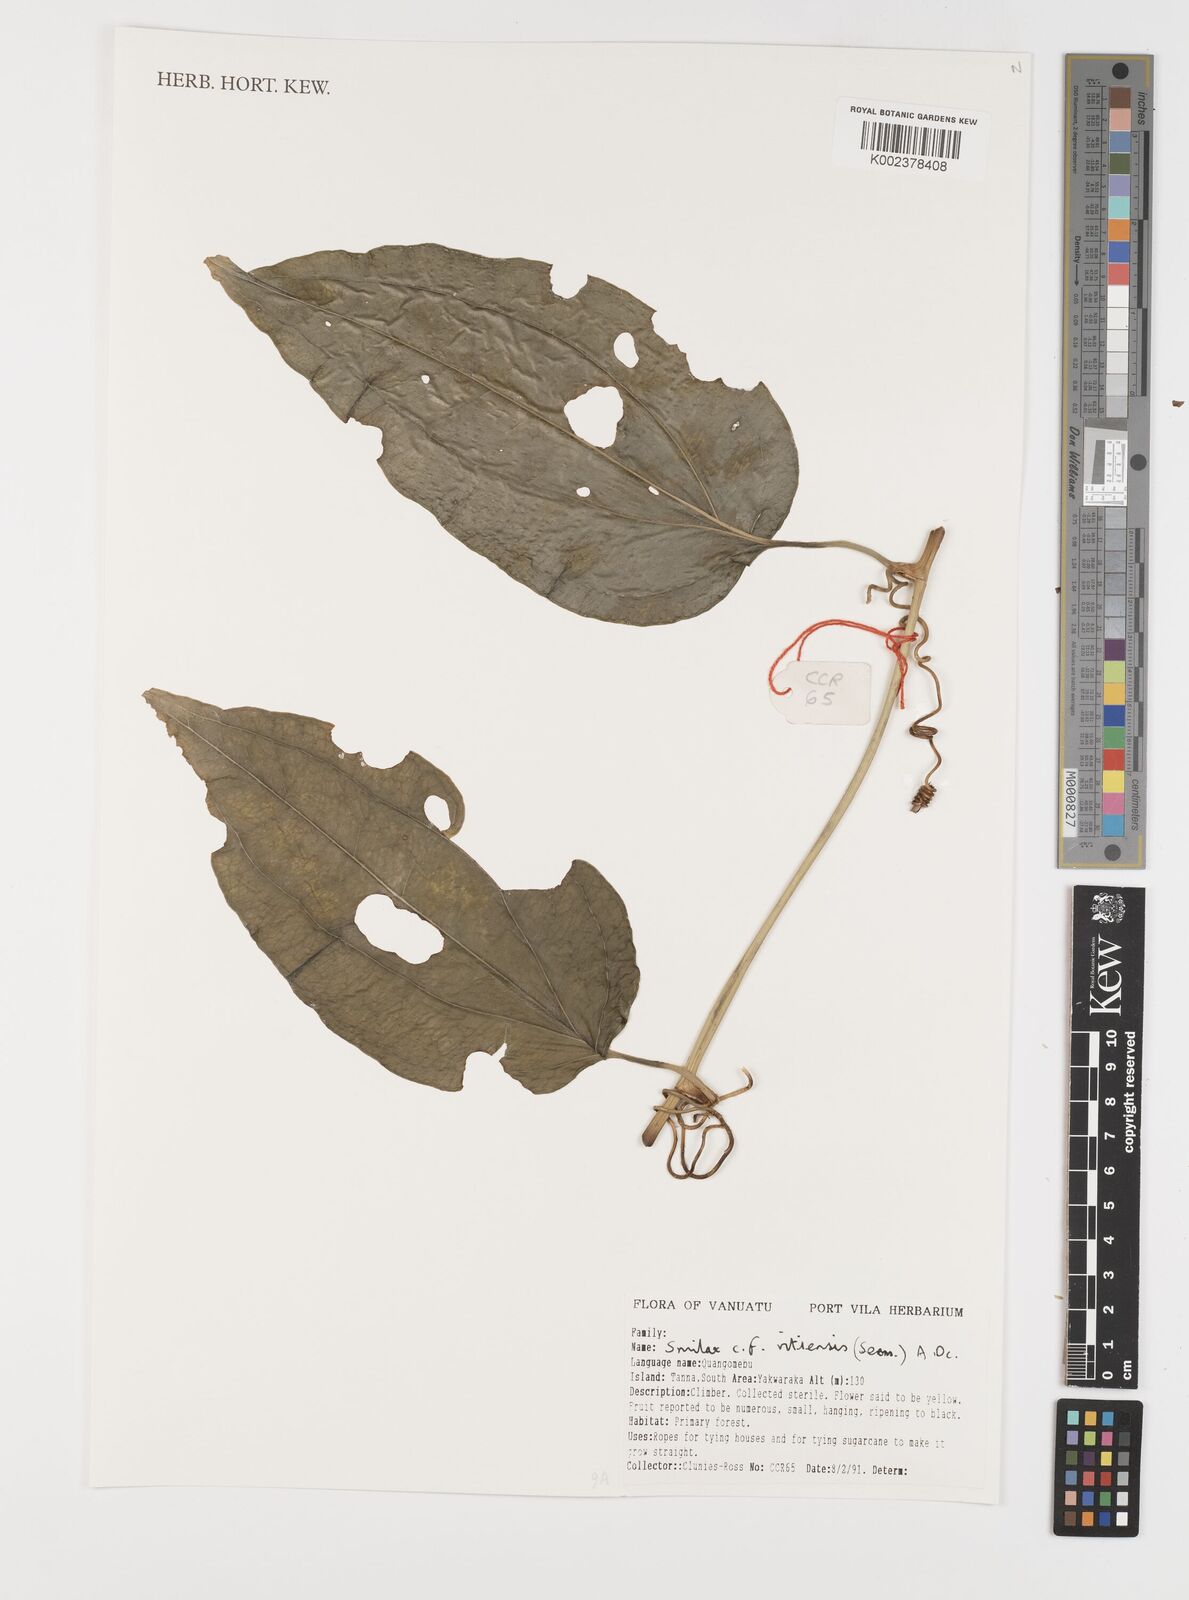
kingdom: Plantae
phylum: Tracheophyta
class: Liliopsida
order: Liliales
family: Smilacaceae
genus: Smilax
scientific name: Smilax vitiensis
